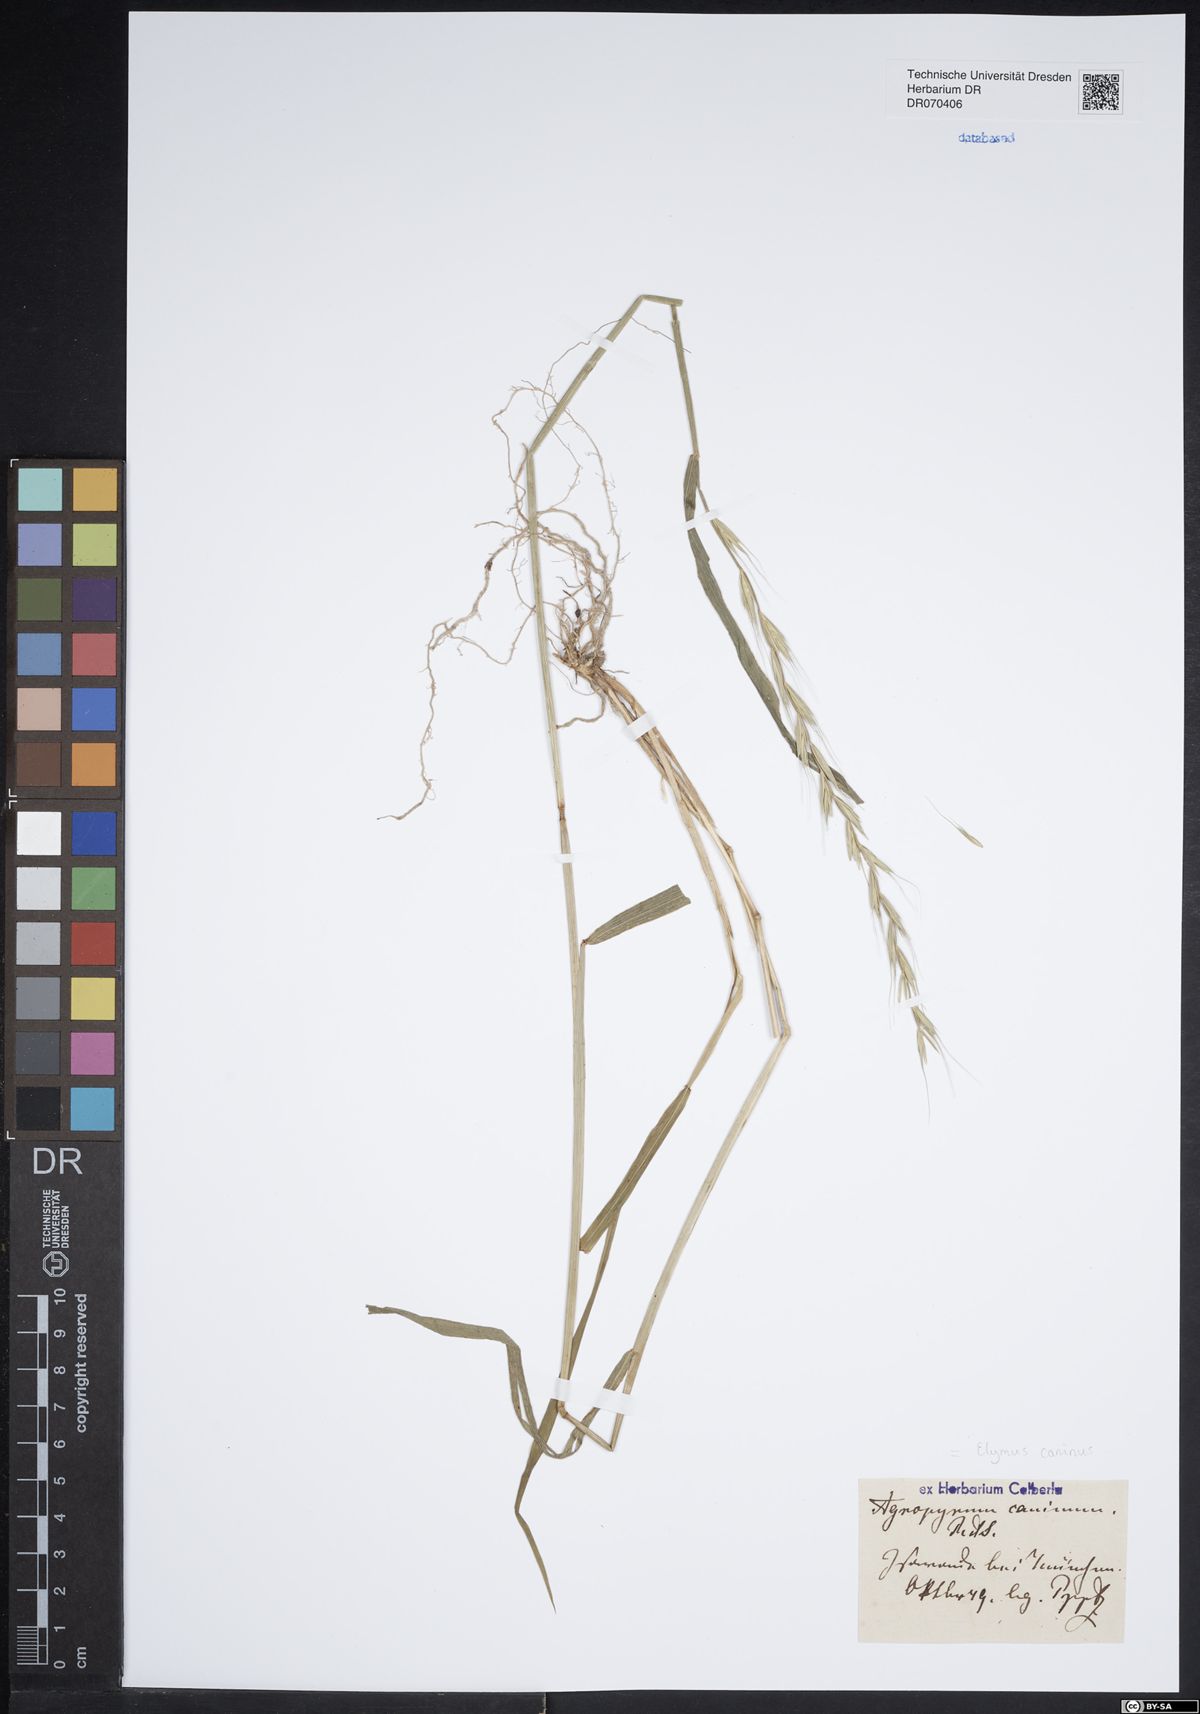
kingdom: Plantae
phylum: Tracheophyta
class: Liliopsida
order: Poales
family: Poaceae
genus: Elymus
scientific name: Elymus caninus
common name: Bearded couch
